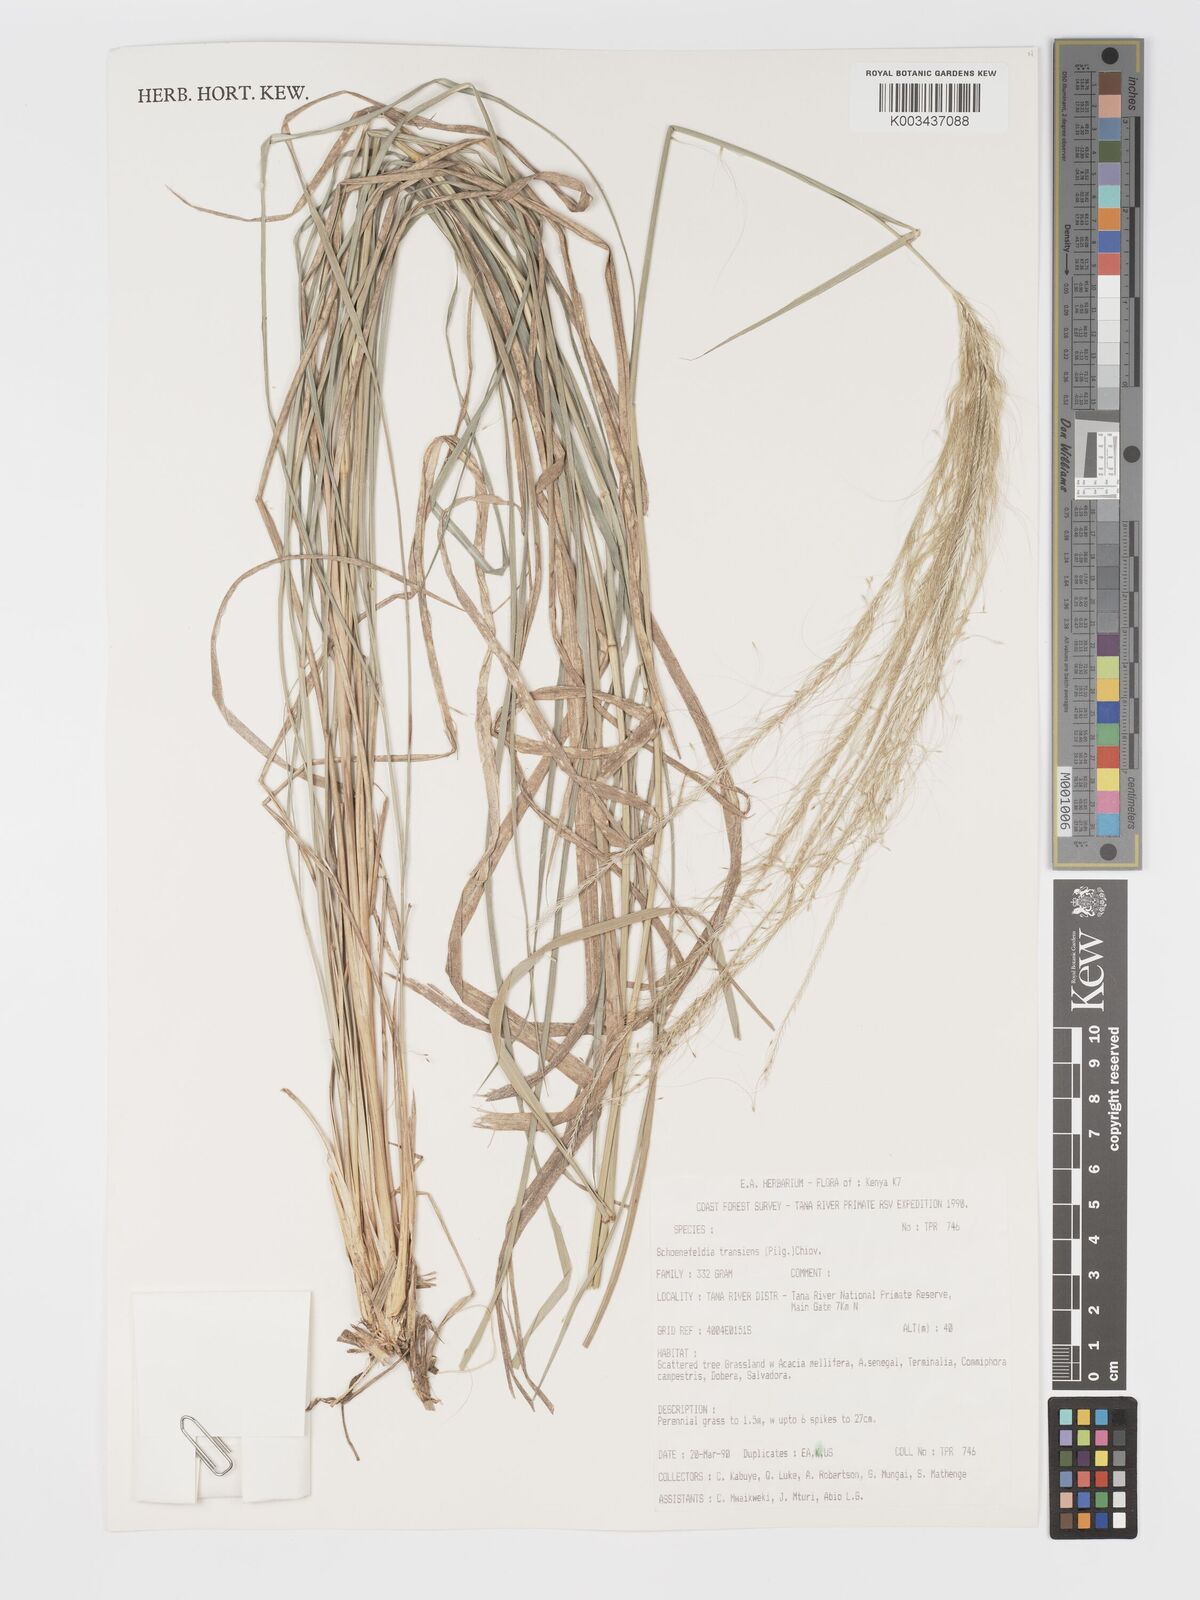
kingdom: Plantae
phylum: Tracheophyta
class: Liliopsida
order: Poales
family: Poaceae
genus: Schoenefeldia
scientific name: Schoenefeldia transiens
